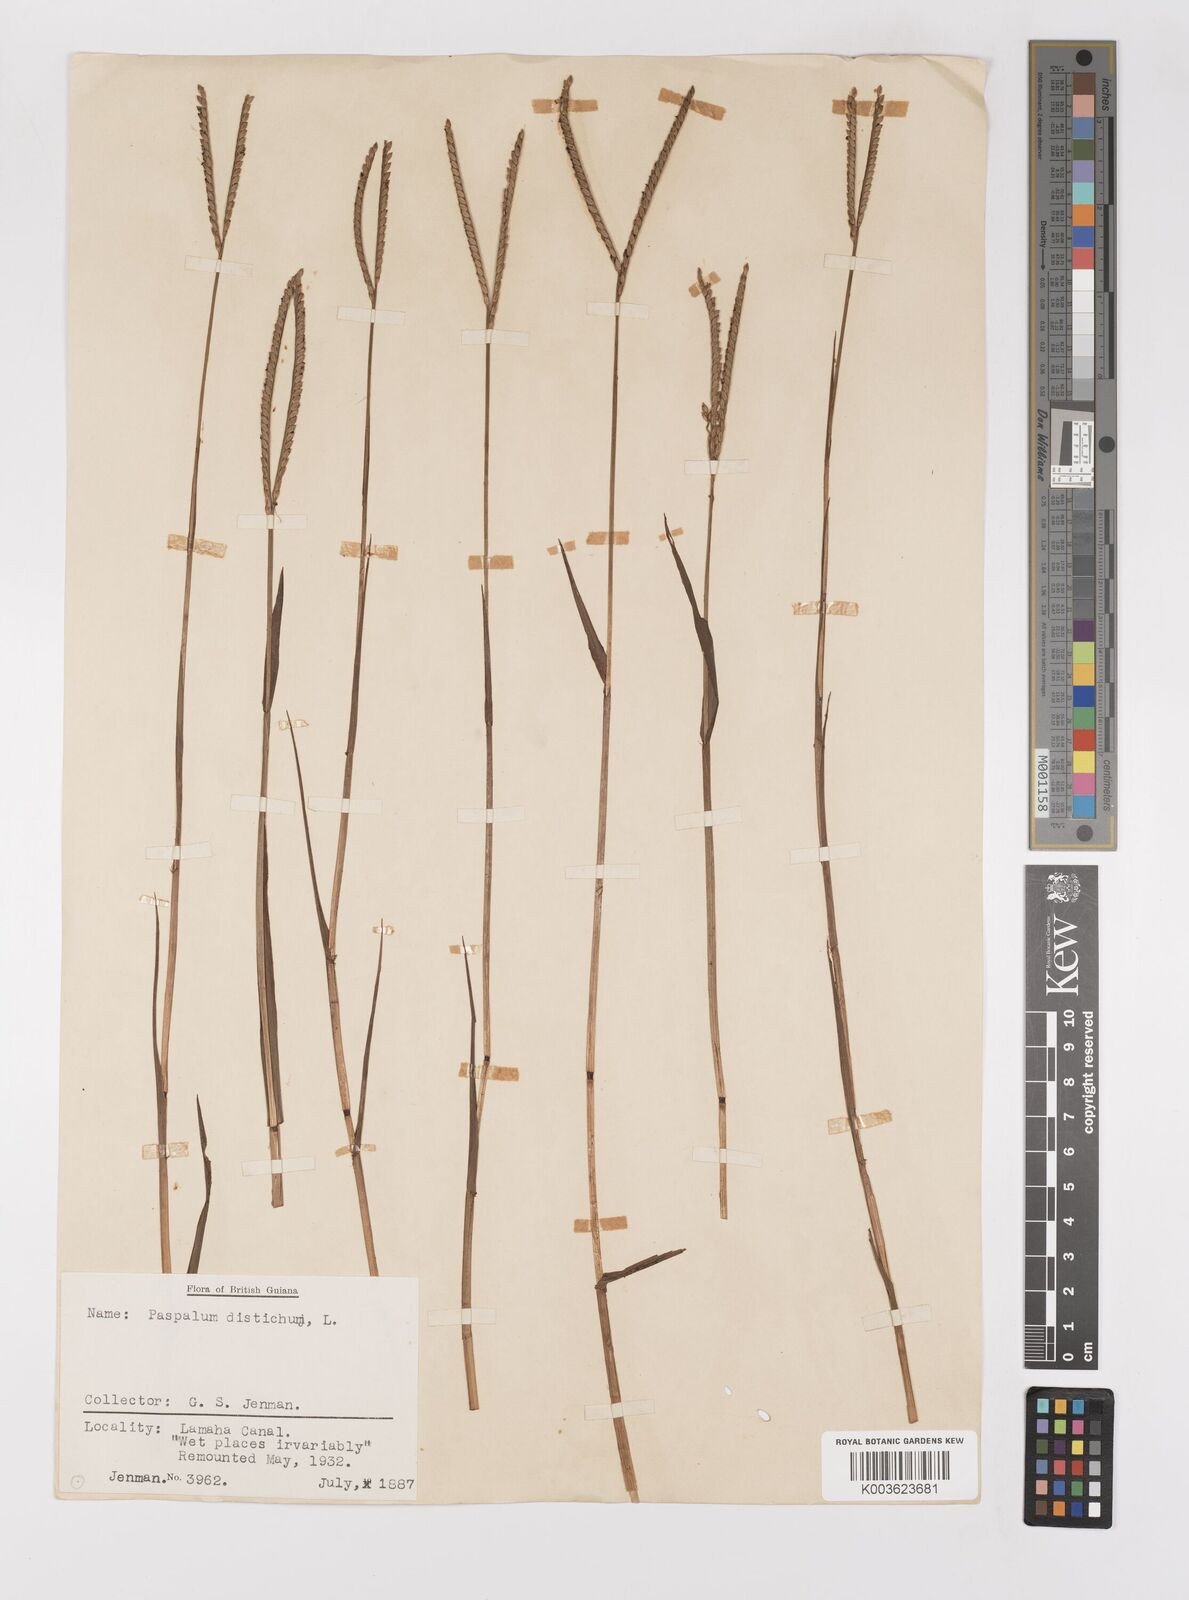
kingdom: Plantae
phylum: Tracheophyta
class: Liliopsida
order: Poales
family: Poaceae
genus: Paspalum
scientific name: Paspalum distichum
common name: Knotgrass
